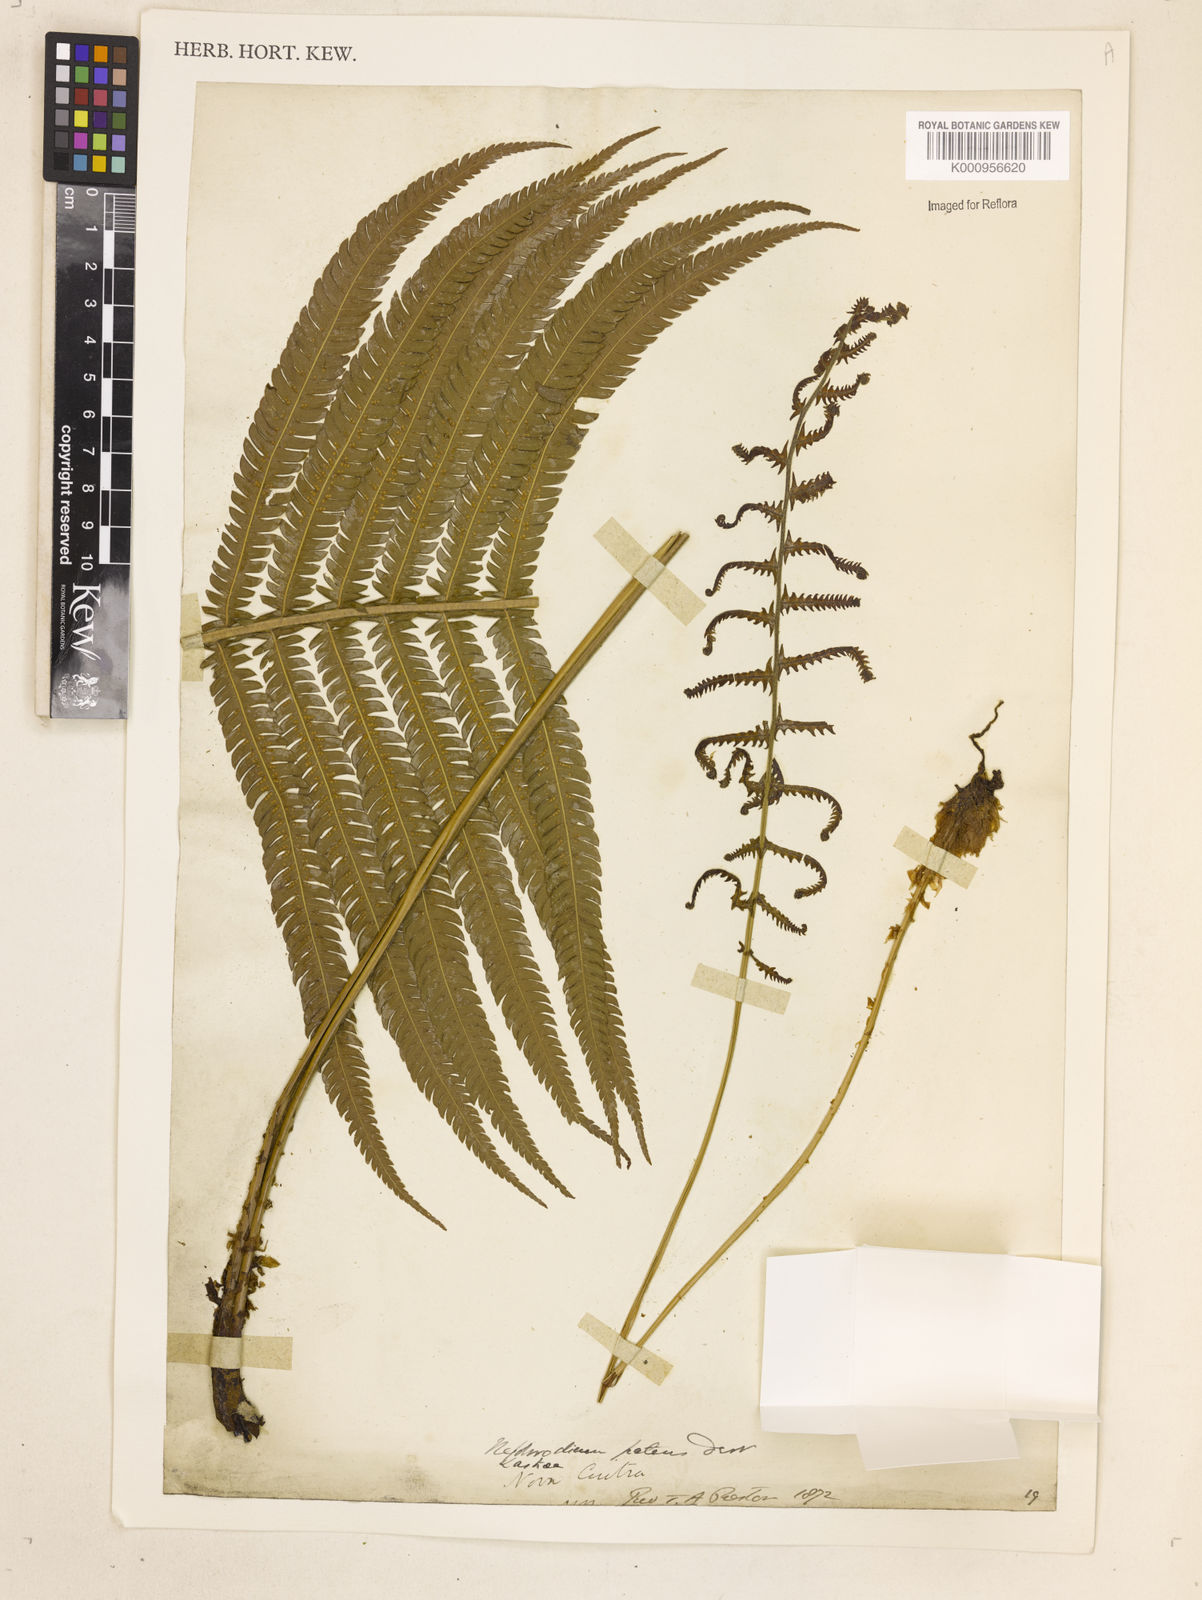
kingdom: Plantae
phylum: Tracheophyta
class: Polypodiopsida
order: Polypodiales
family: Thelypteridaceae
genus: Christella
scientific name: Christella
